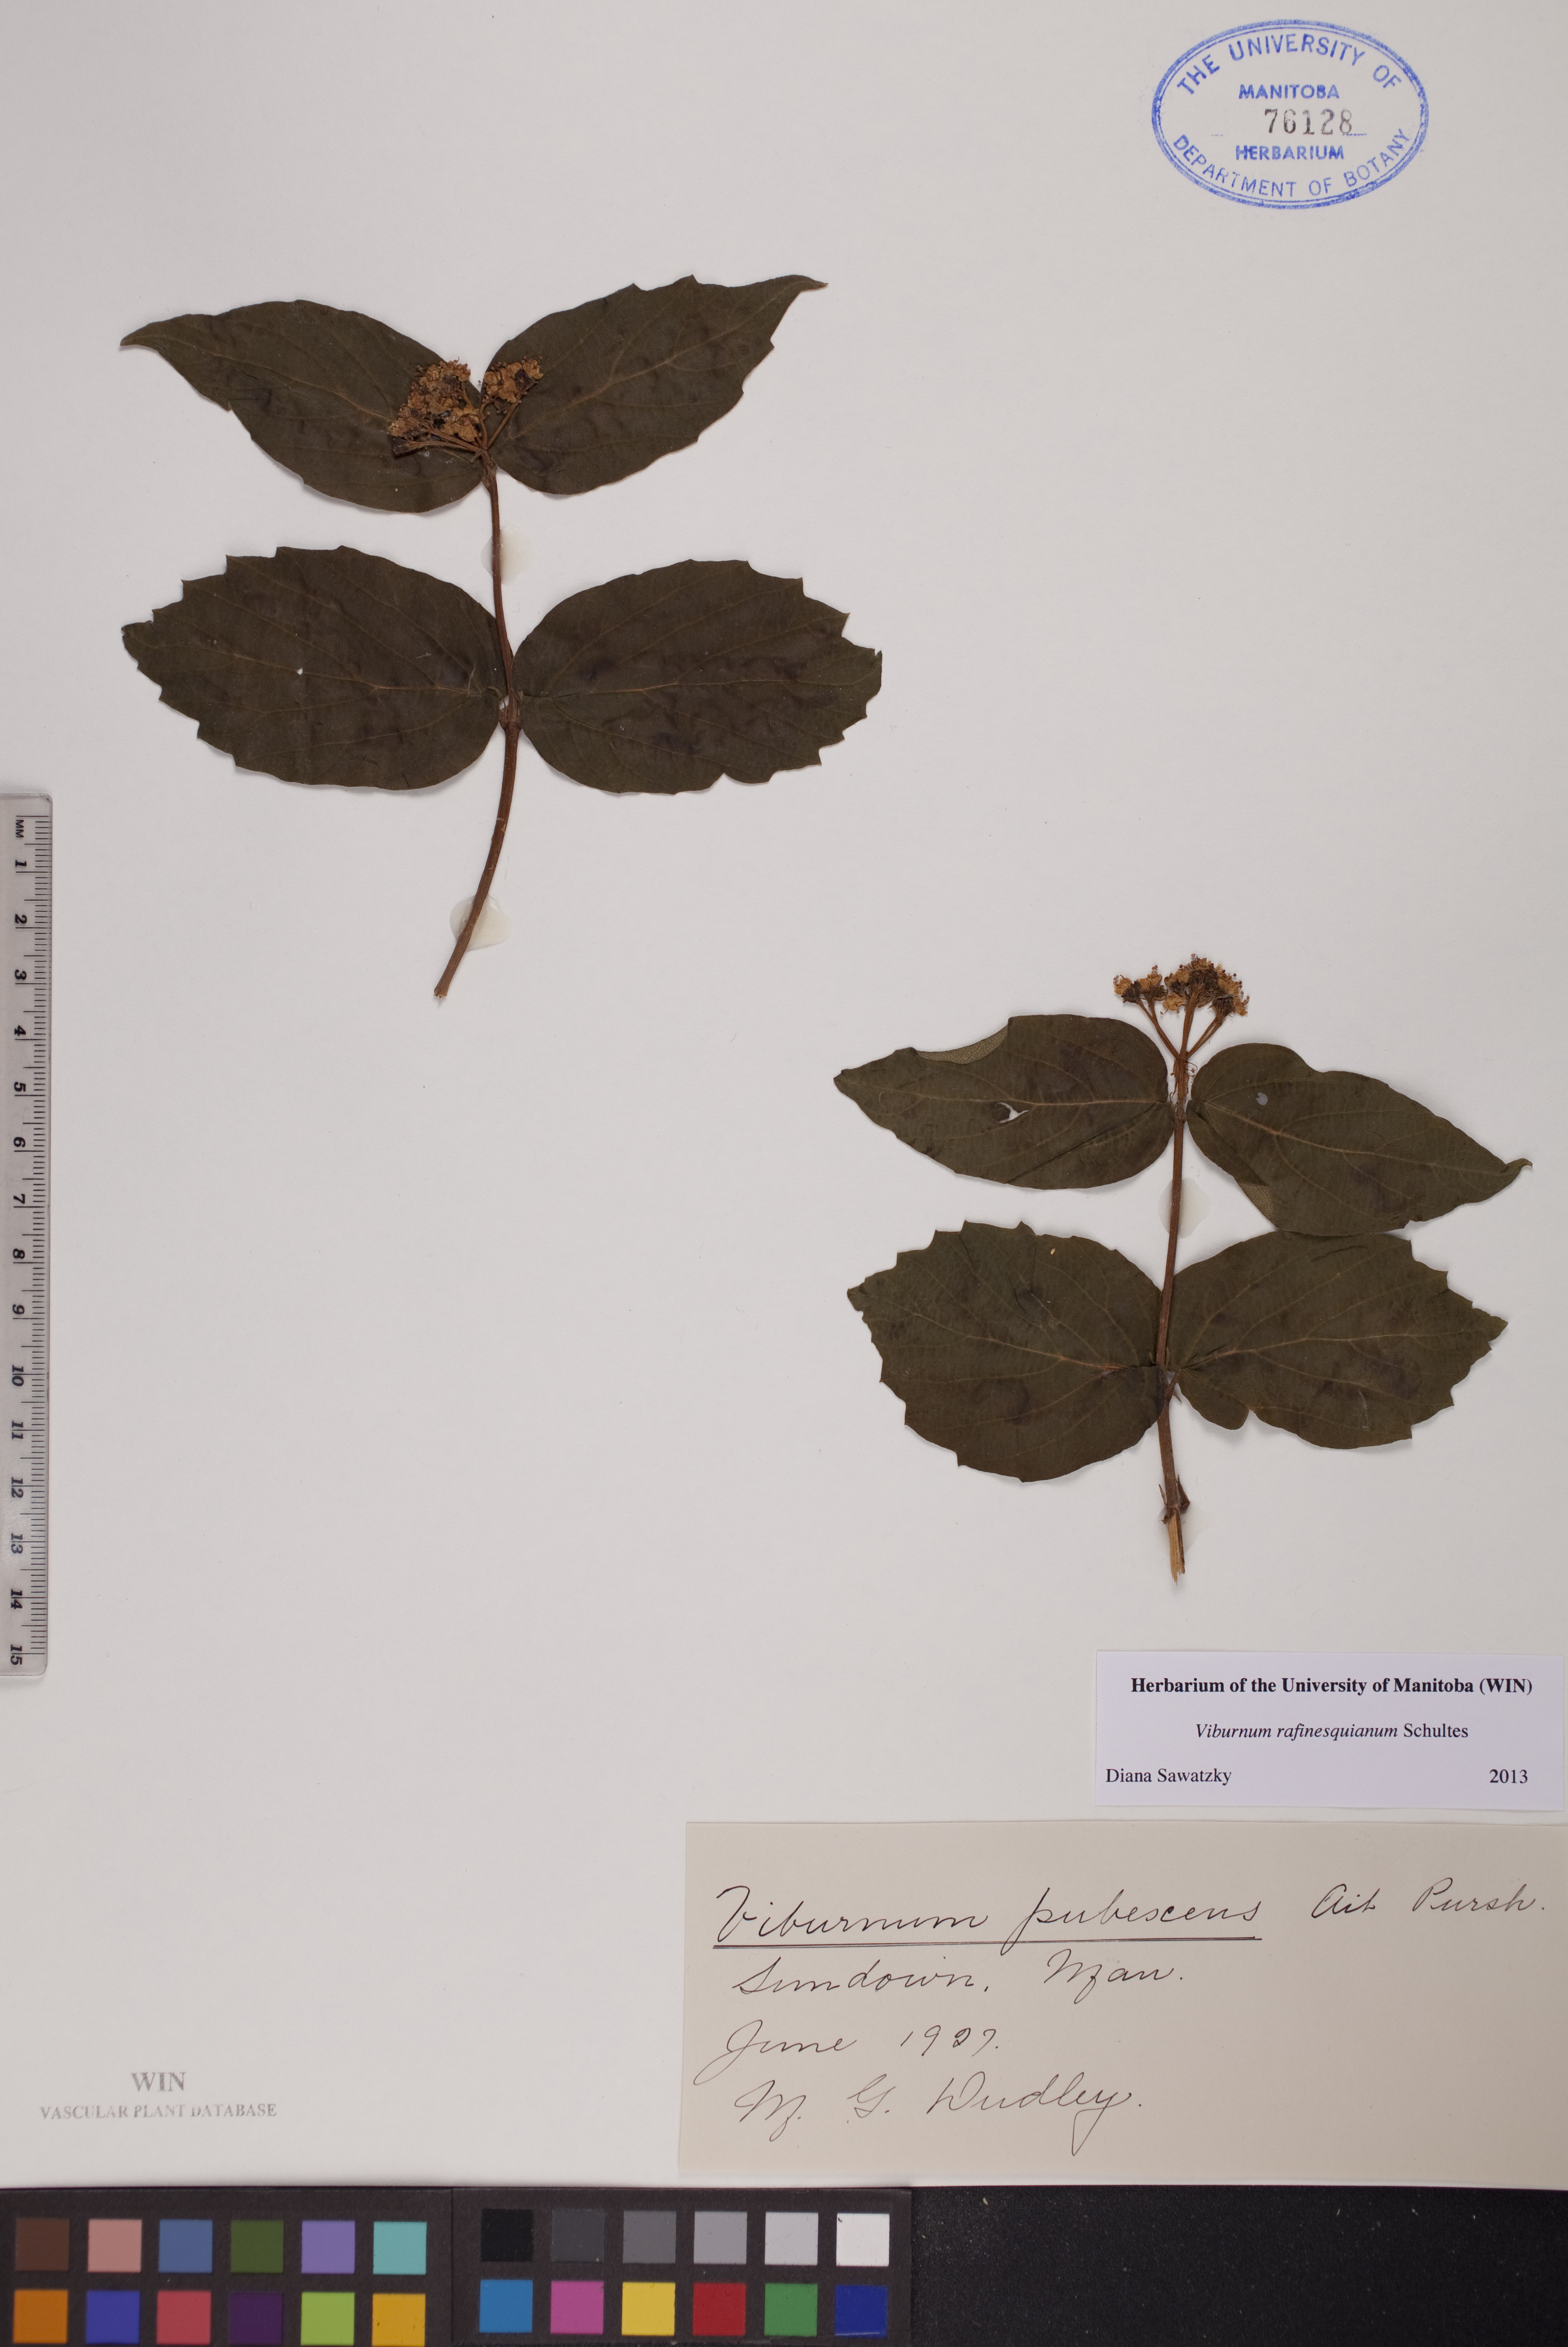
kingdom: Plantae
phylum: Tracheophyta
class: Magnoliopsida
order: Dipsacales
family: Viburnaceae
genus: Viburnum
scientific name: Viburnum rafinesquianum
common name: Downy arrow-wood
